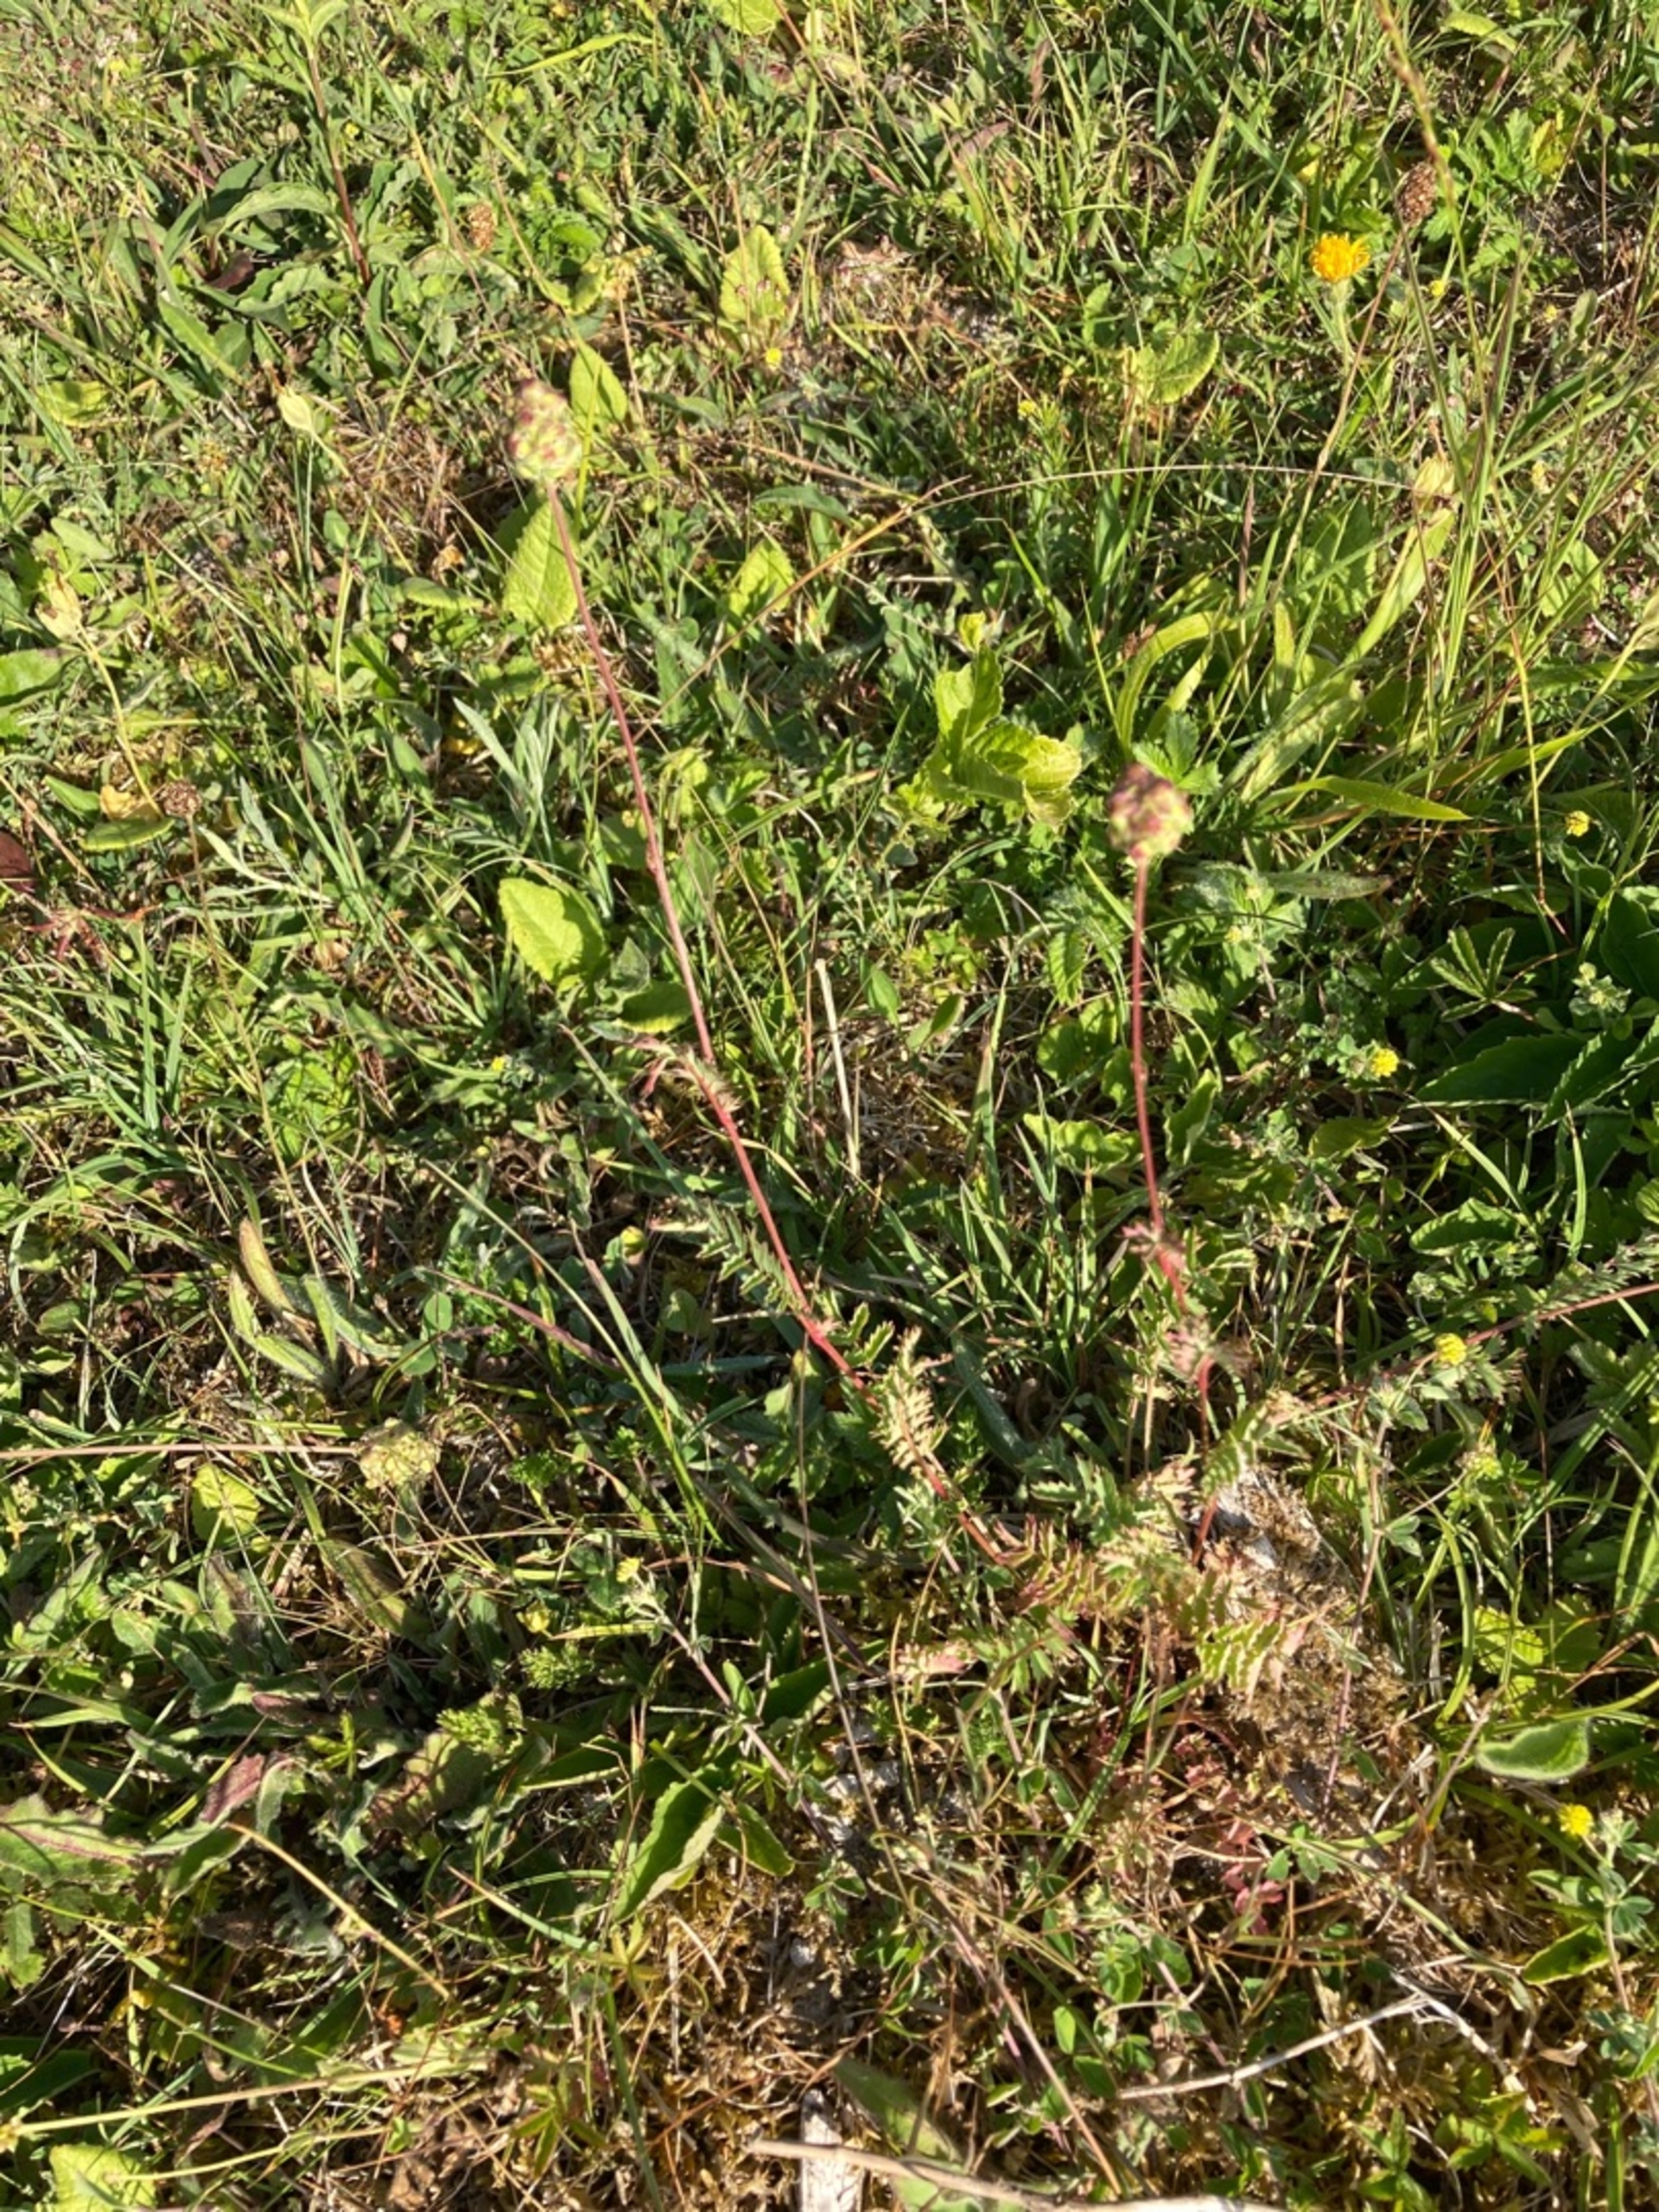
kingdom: Plantae
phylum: Tracheophyta
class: Magnoliopsida
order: Rosales
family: Rosaceae
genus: Poterium
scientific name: Poterium sanguisorba
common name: Bibernelle
